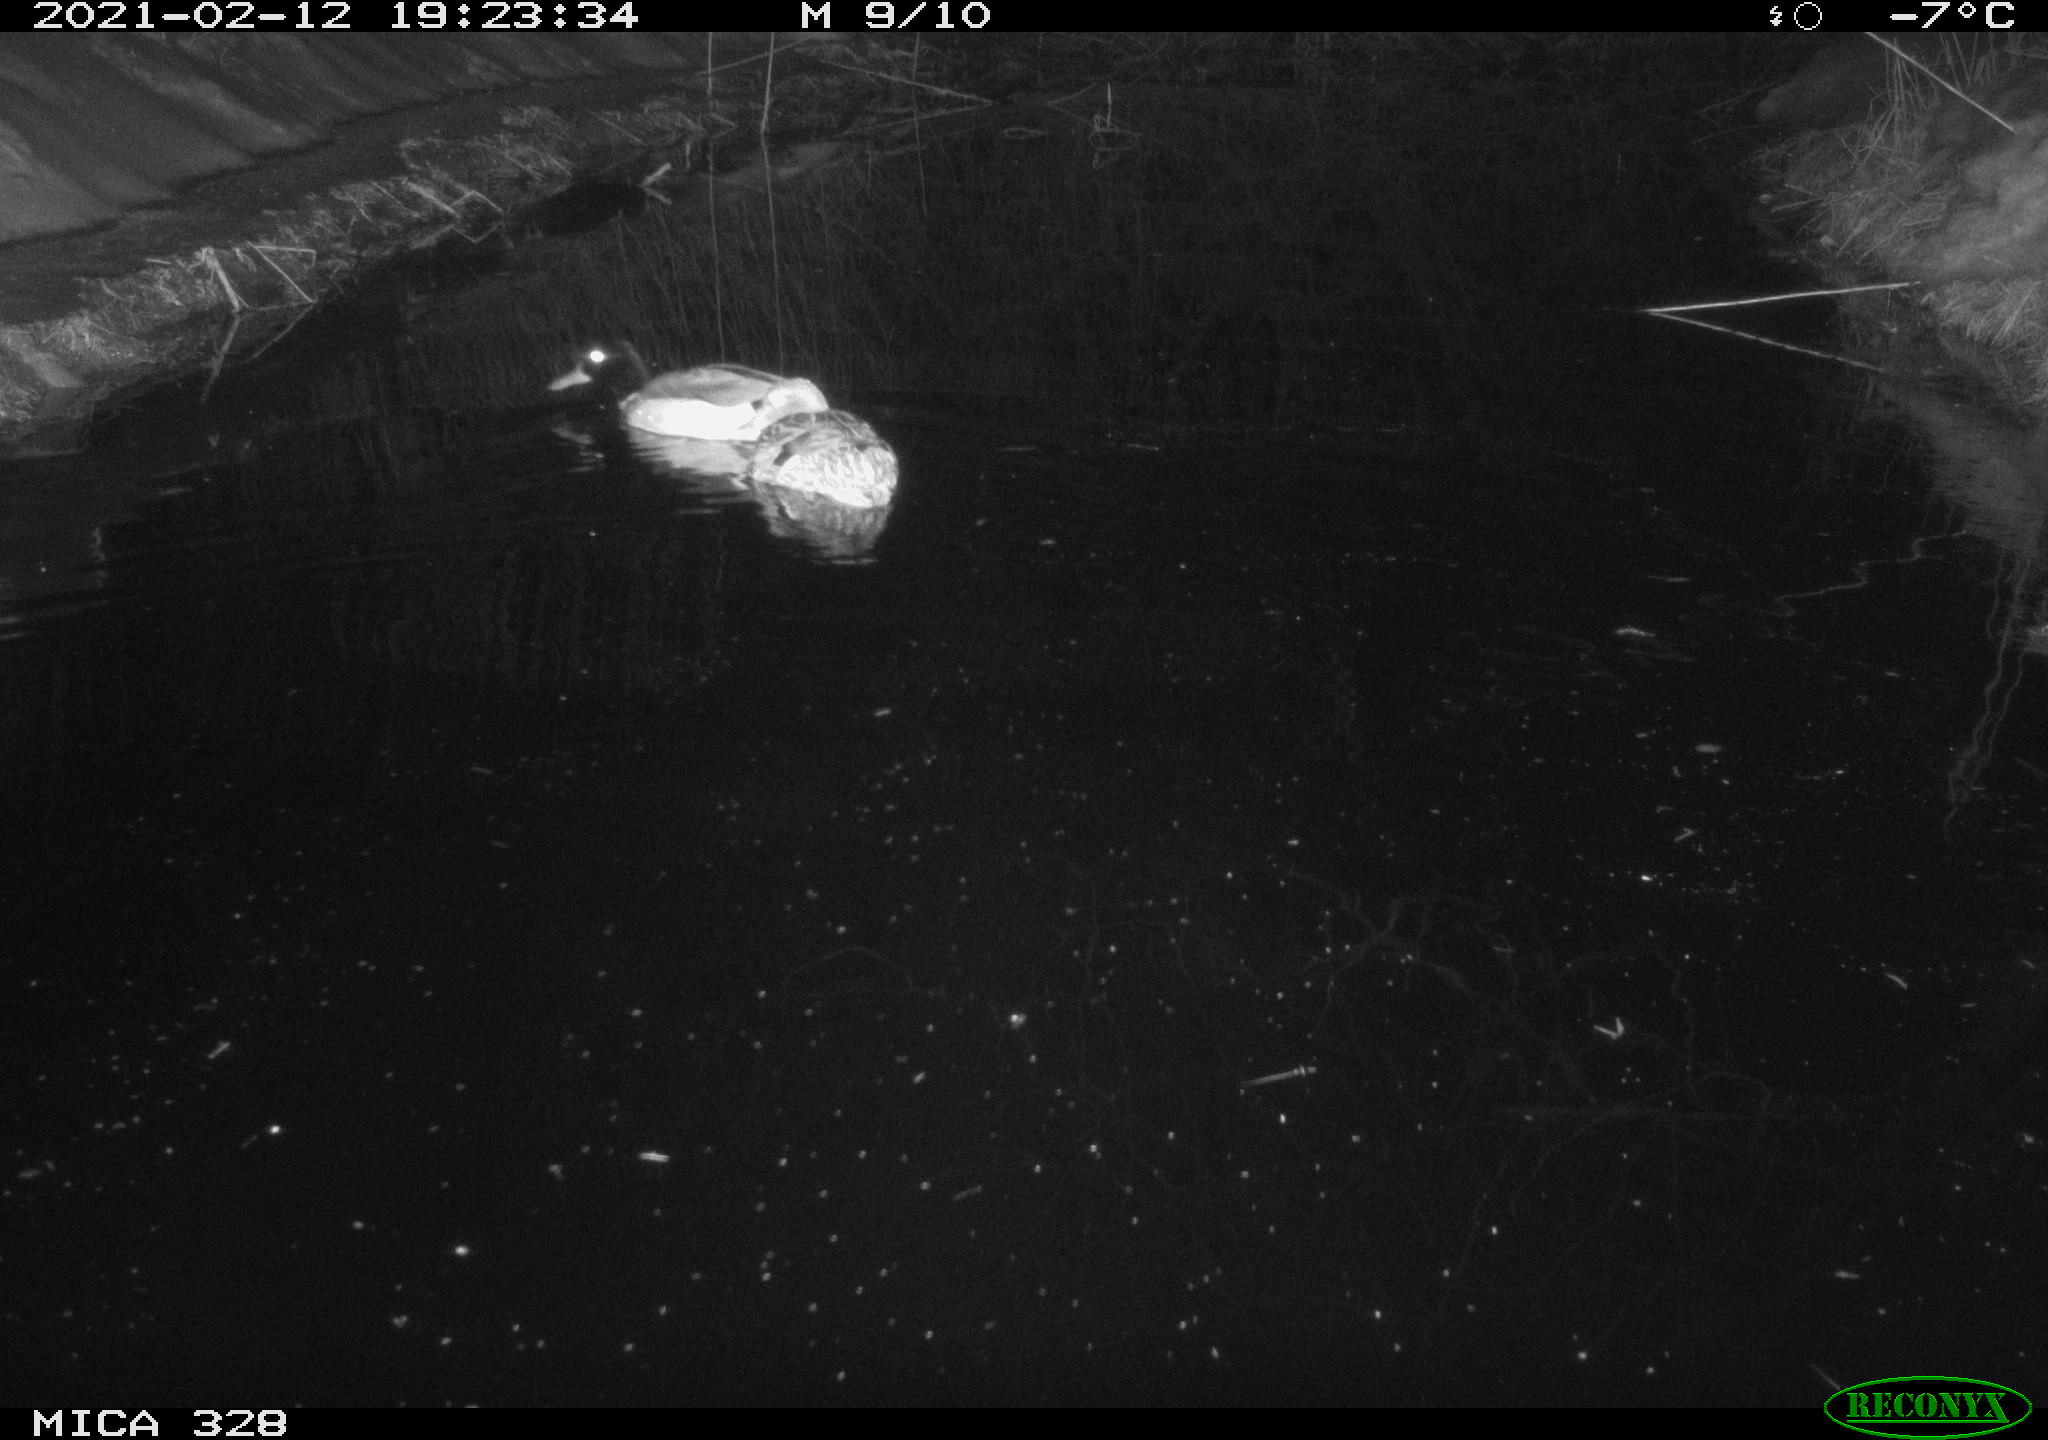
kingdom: Animalia
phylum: Chordata
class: Aves
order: Anseriformes
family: Anatidae
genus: Anas
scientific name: Anas platyrhynchos
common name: Mallard
